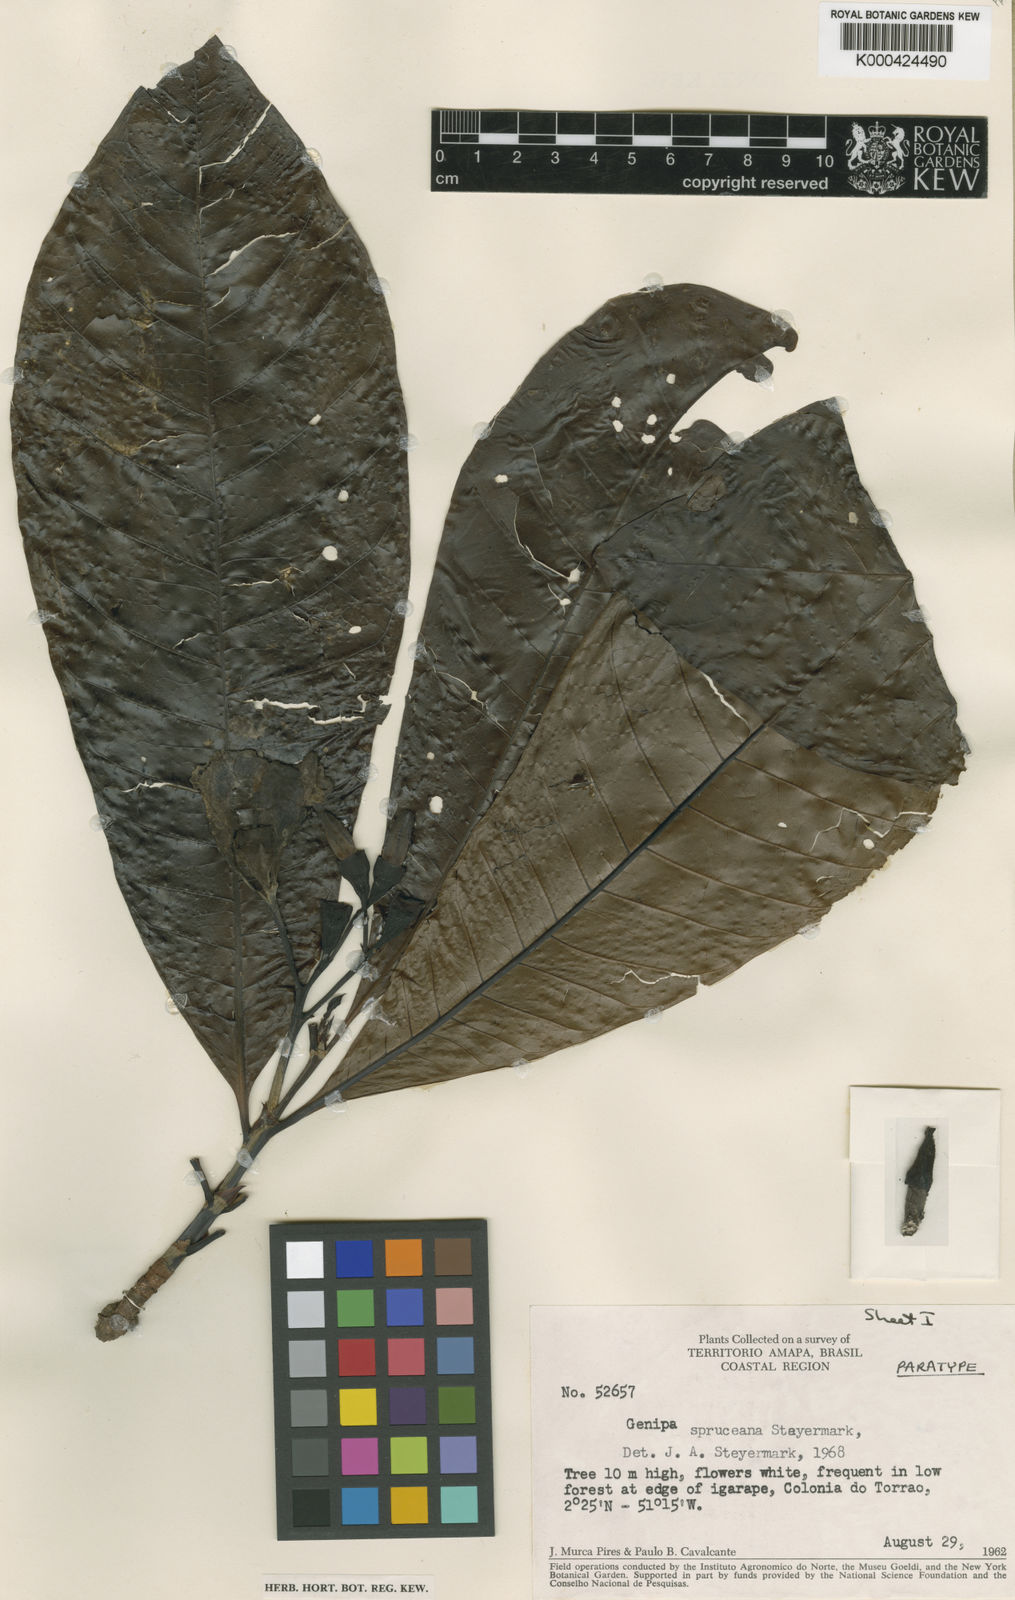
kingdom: Plantae
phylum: Tracheophyta
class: Magnoliopsida
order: Gentianales
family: Rubiaceae
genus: Genipa
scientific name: Genipa americana
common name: Genipap
